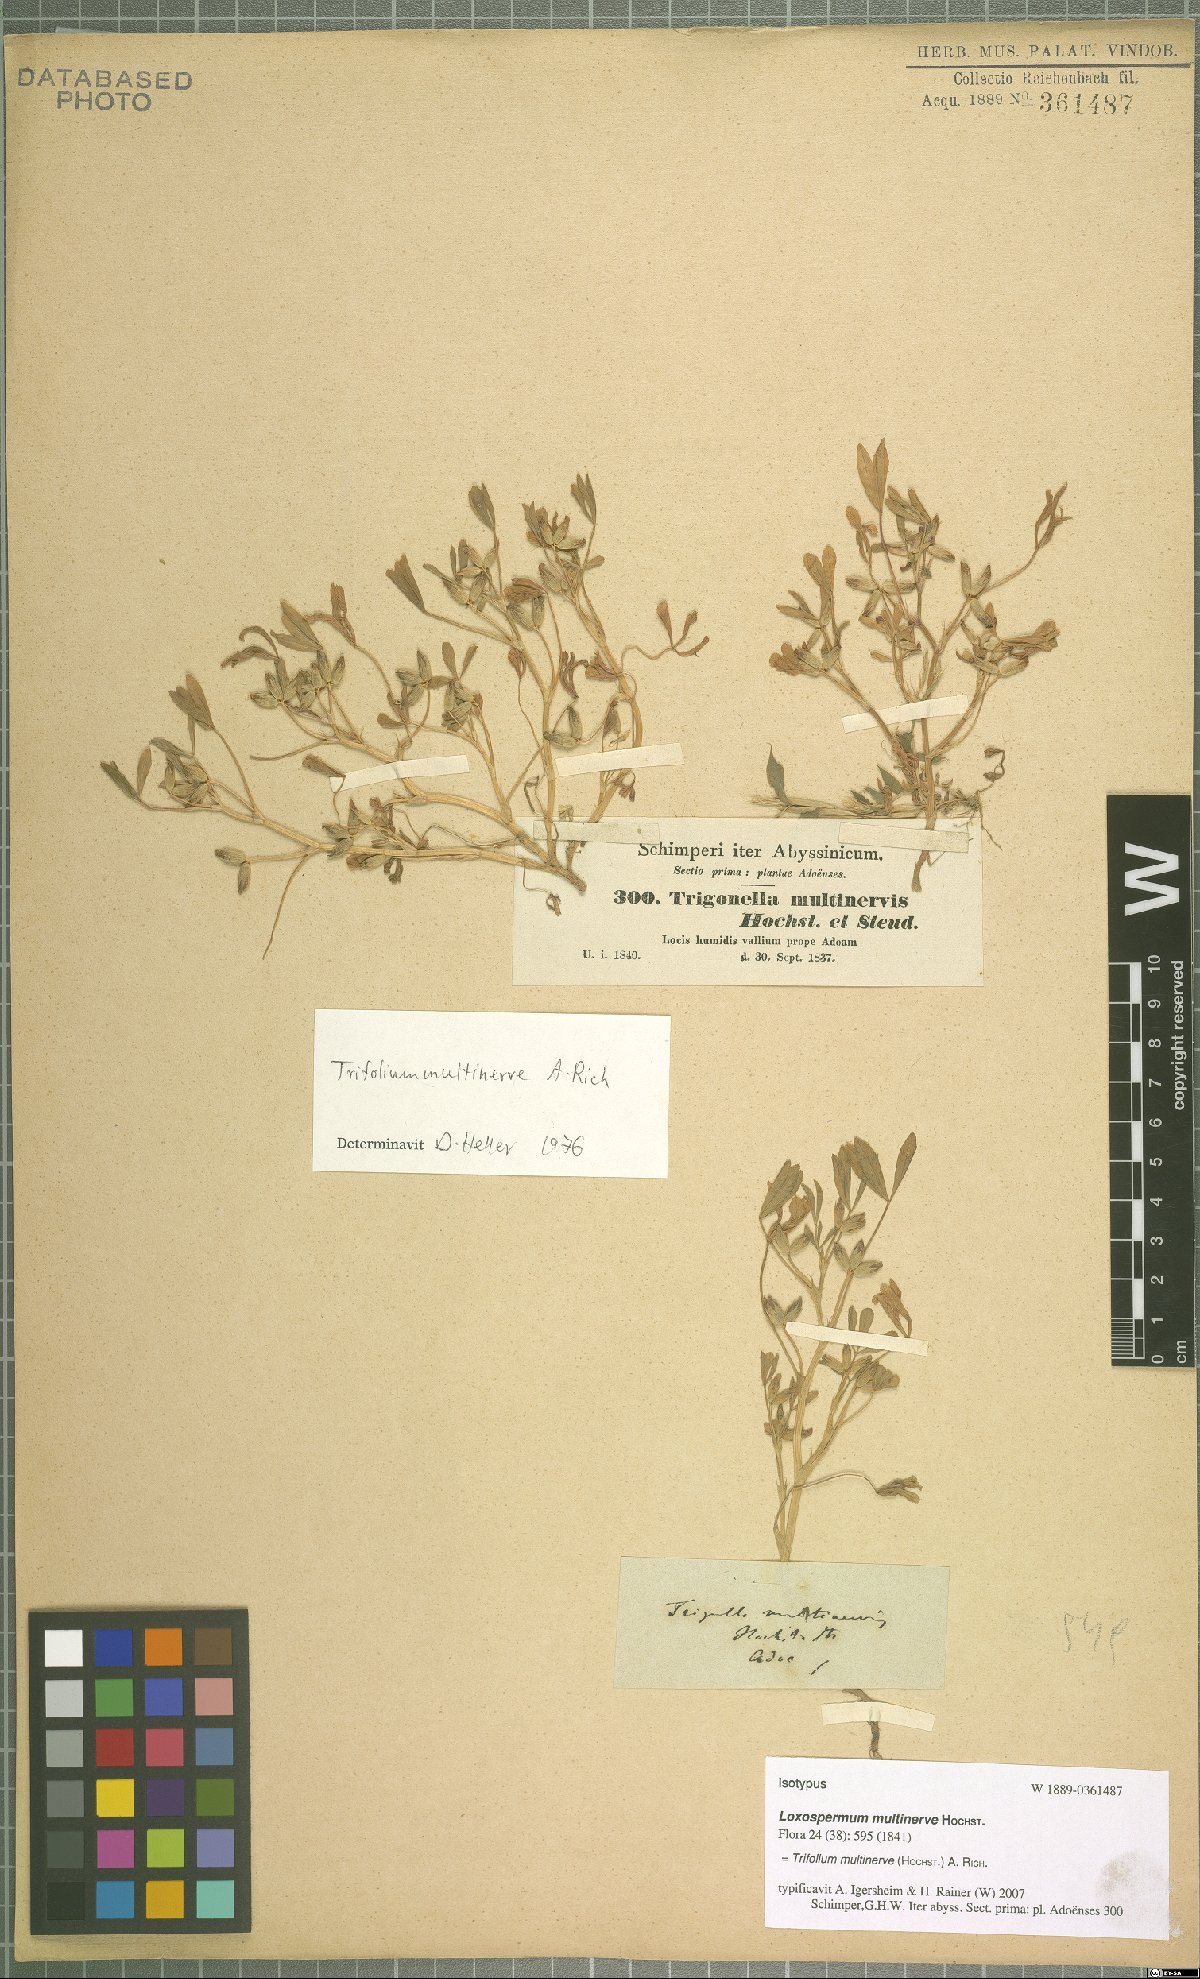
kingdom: Plantae
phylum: Tracheophyta
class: Magnoliopsida
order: Fabales
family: Fabaceae
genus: Trifolium
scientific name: Trifolium multinerve
